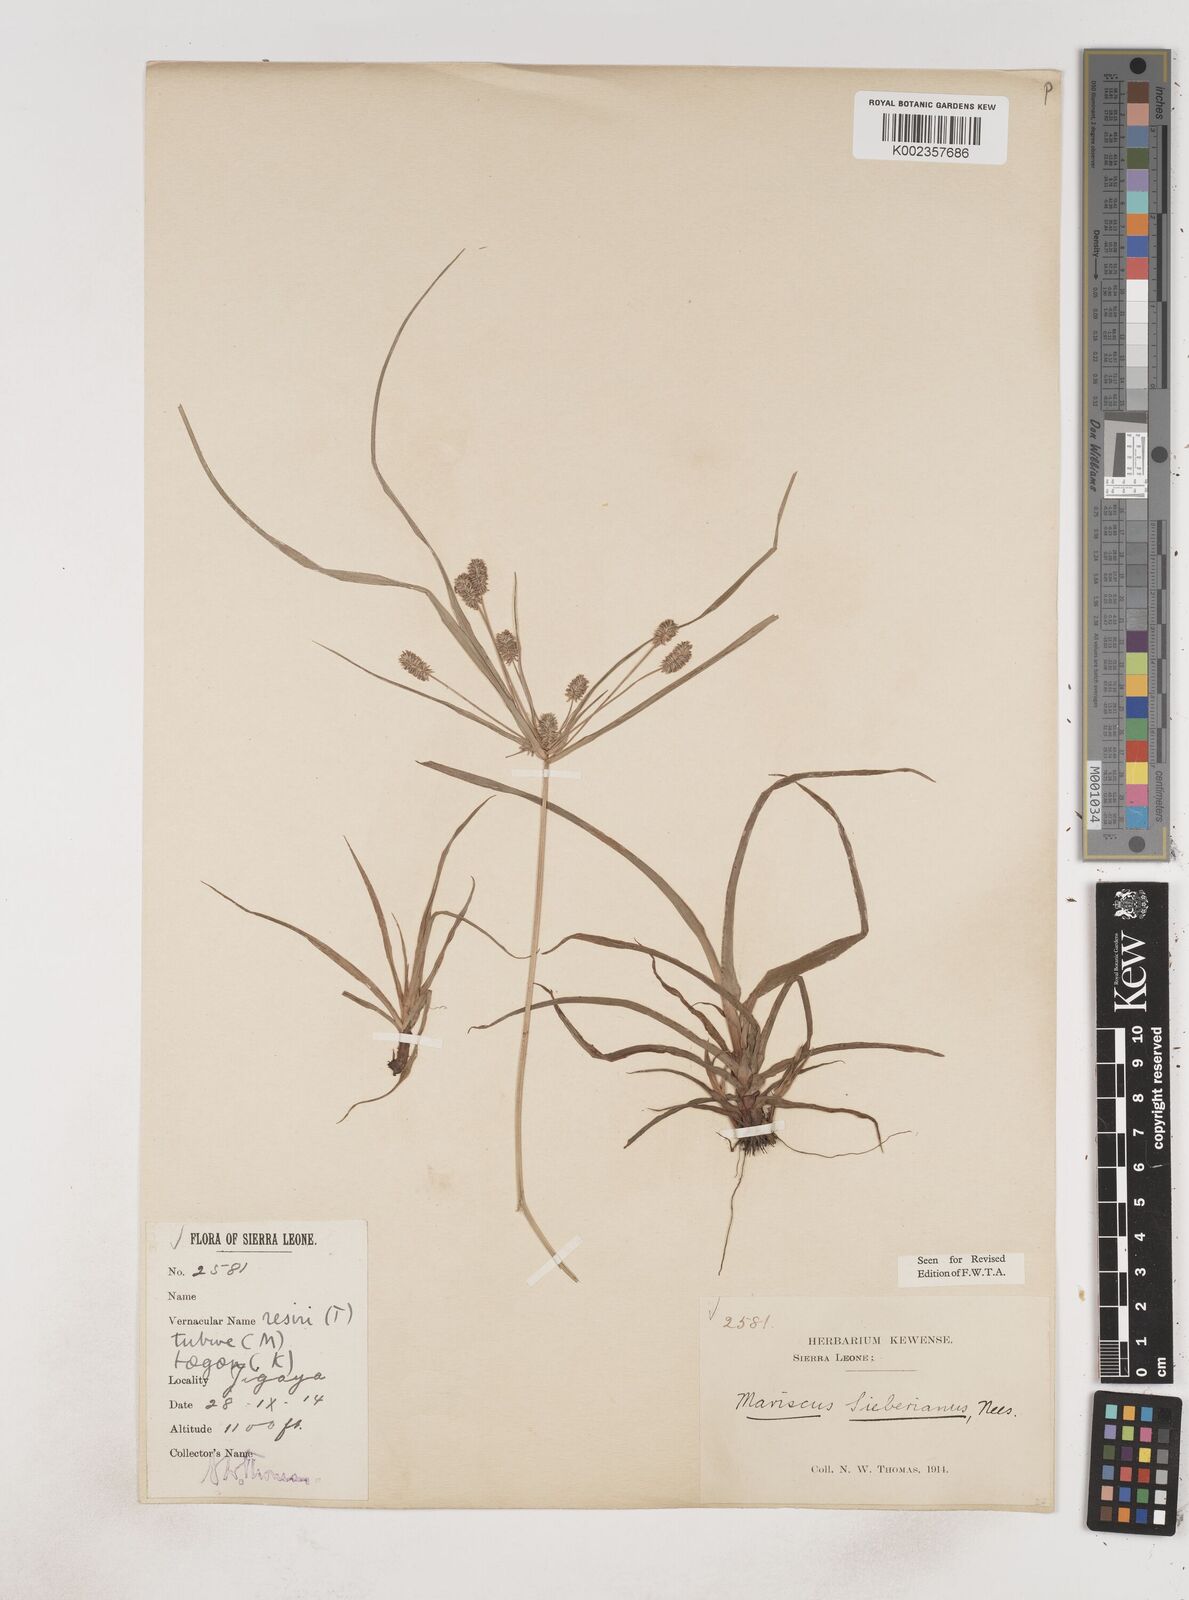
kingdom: Plantae
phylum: Tracheophyta
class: Liliopsida
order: Poales
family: Cyperaceae
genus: Cyperus
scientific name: Cyperus sublimis
